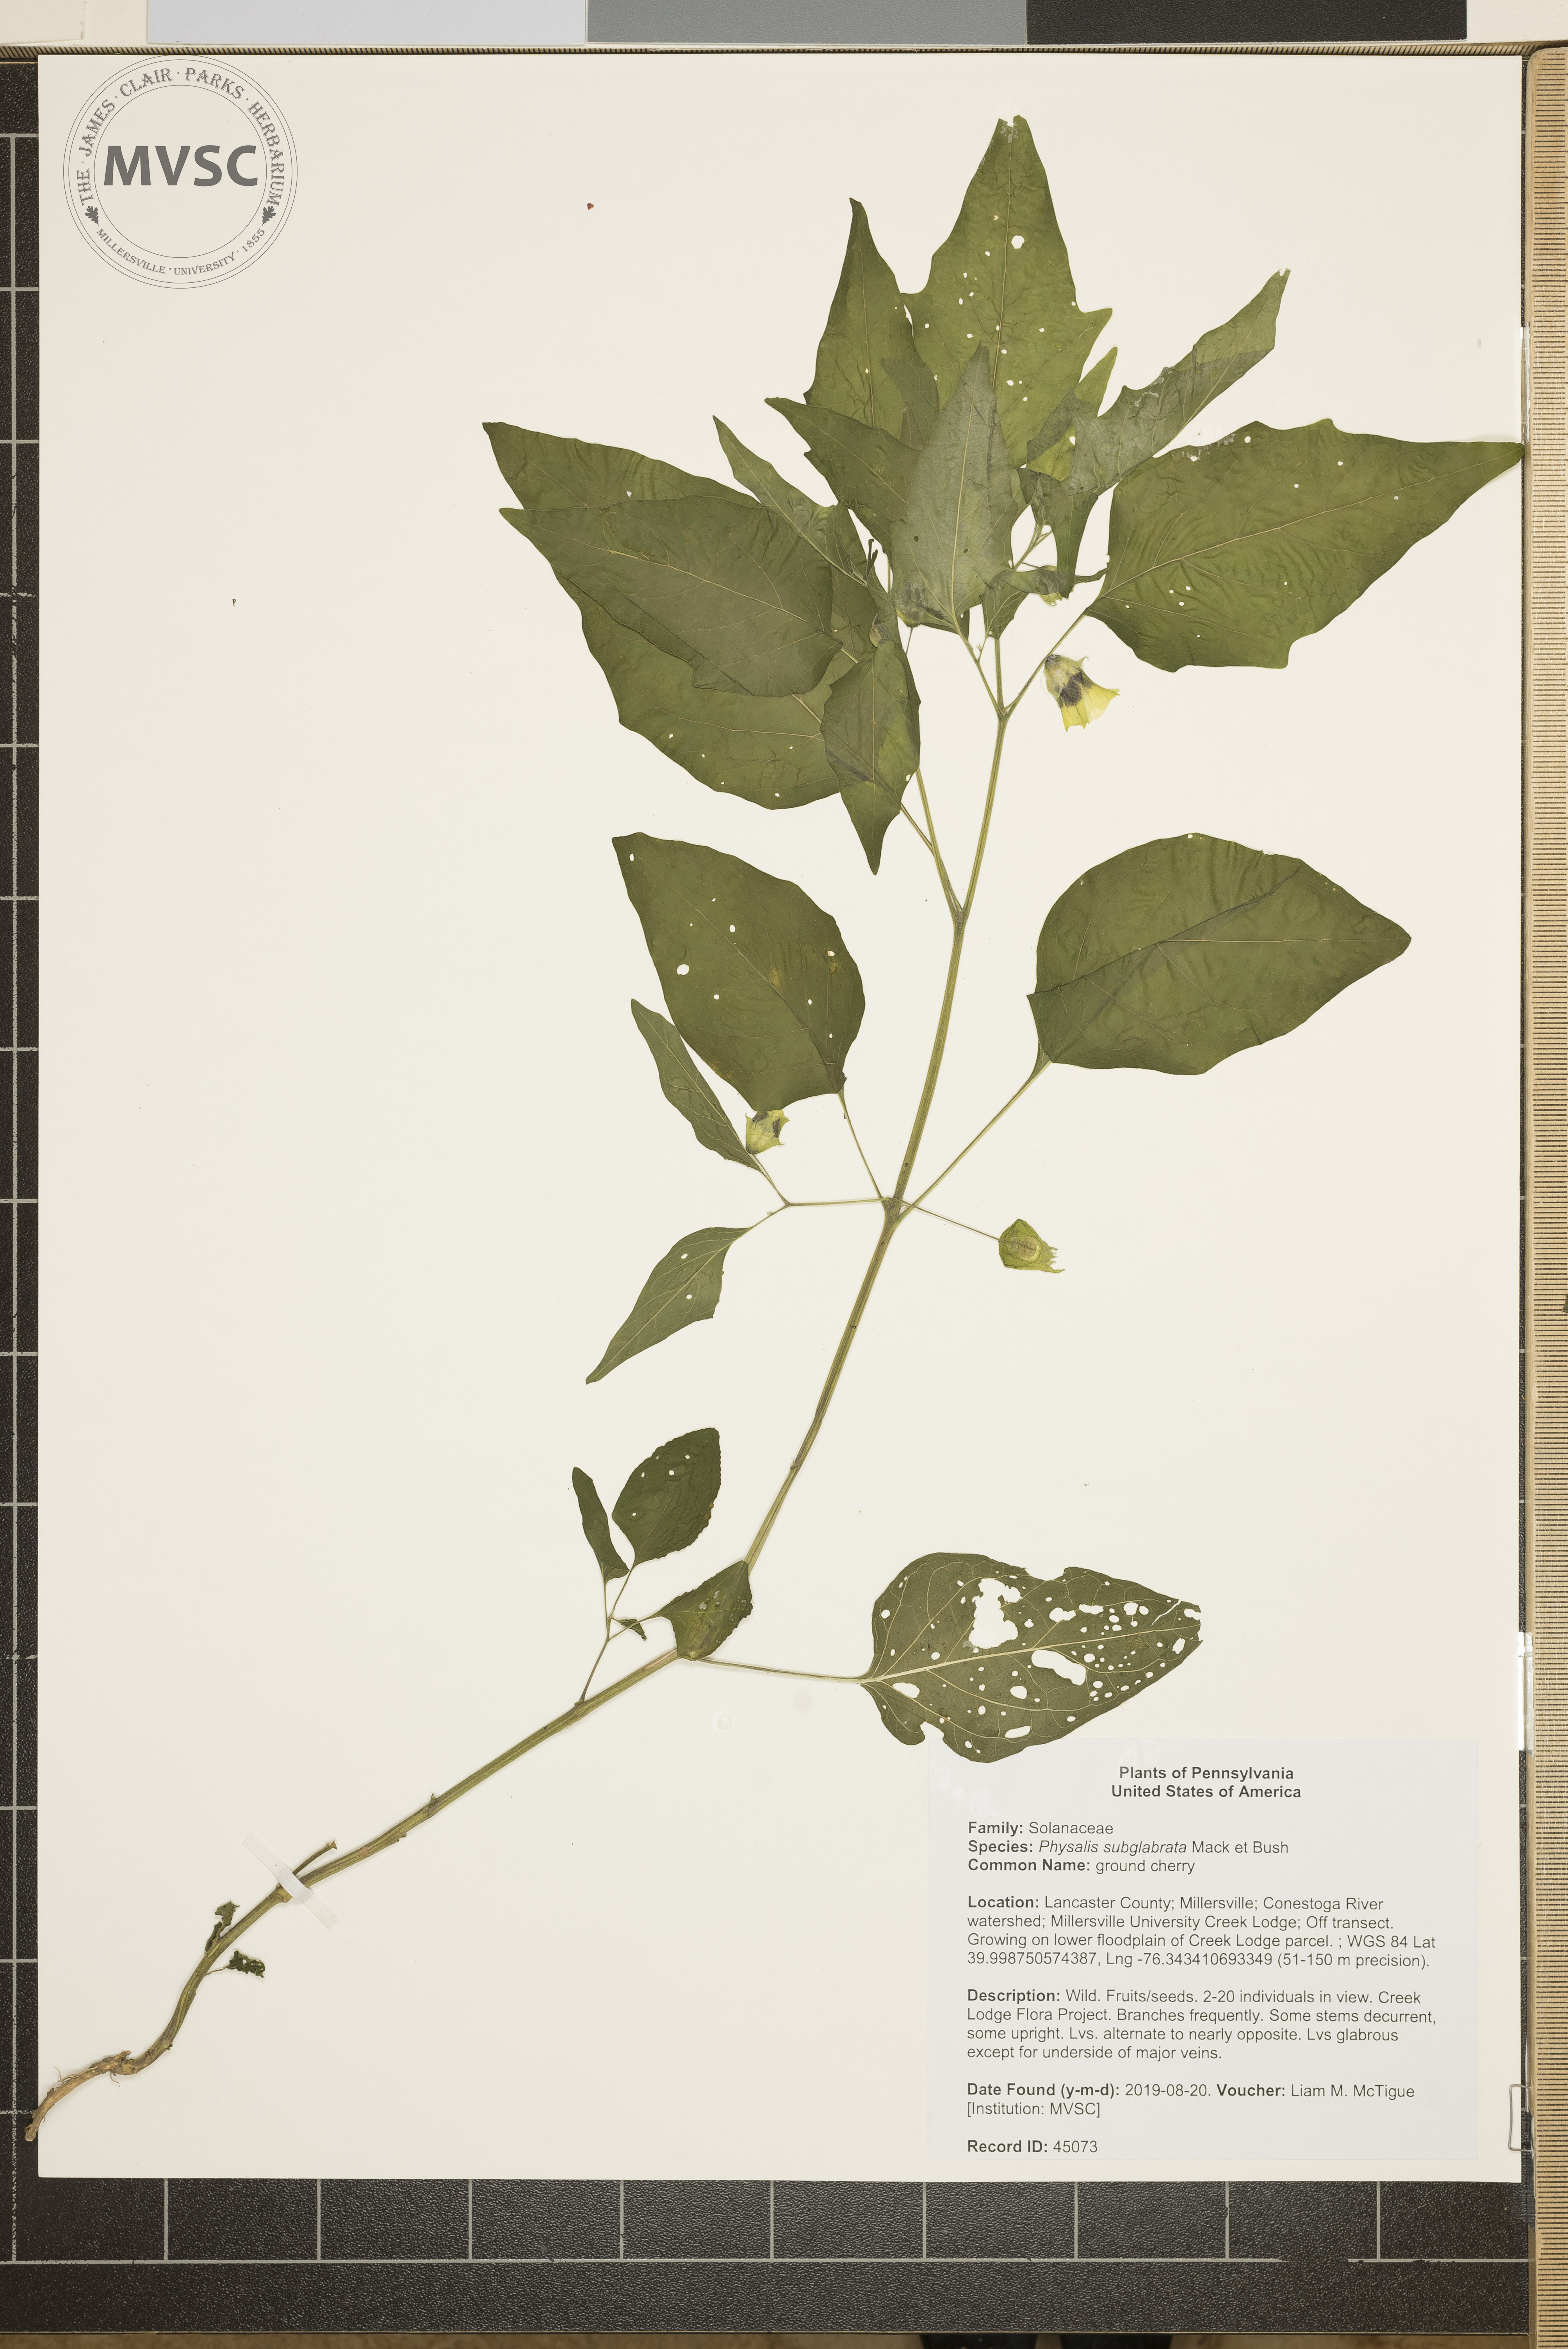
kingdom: Plantae
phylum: Tracheophyta
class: Magnoliopsida
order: Solanales
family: Solanaceae
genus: Physalis
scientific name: Physalis longifolia
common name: ground cherry
